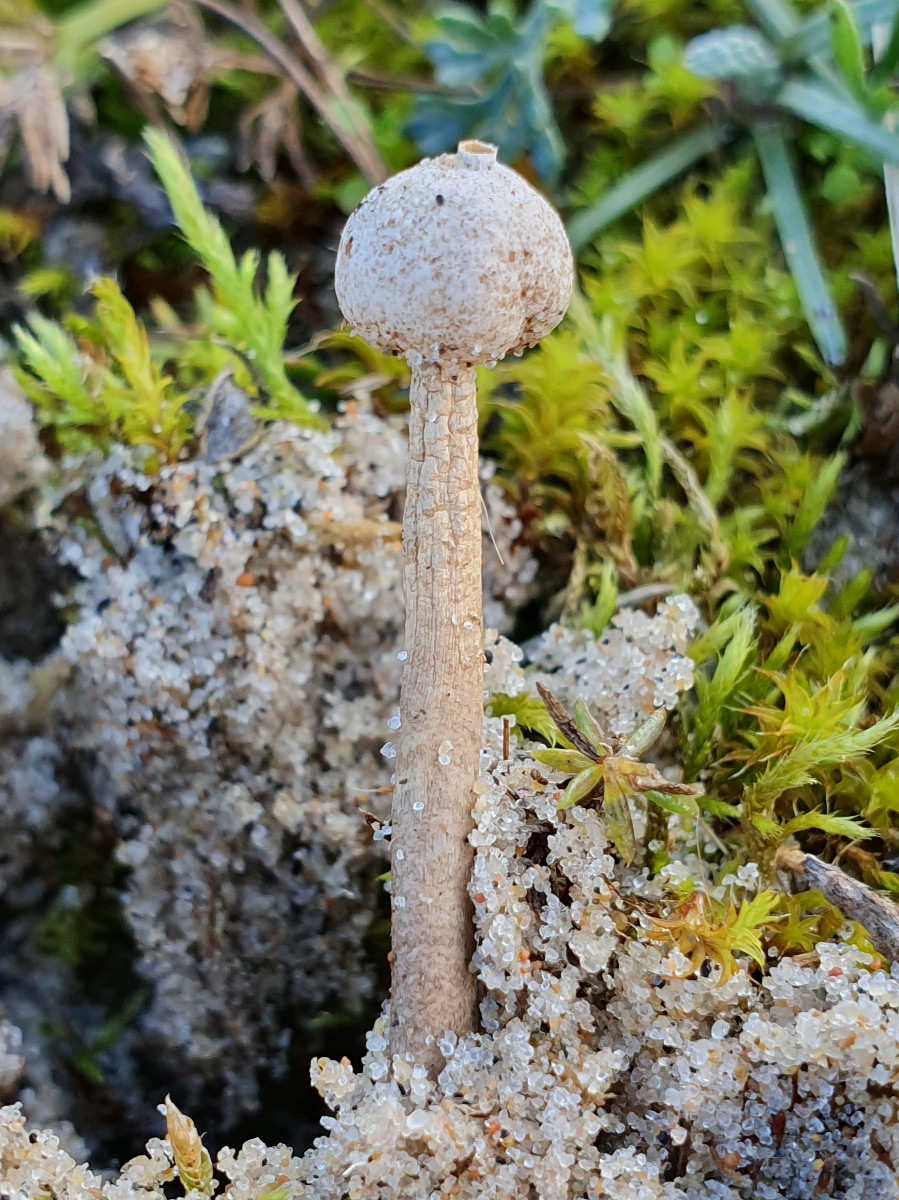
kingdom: Fungi
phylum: Basidiomycota
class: Agaricomycetes
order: Agaricales
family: Agaricaceae
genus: Tulostoma
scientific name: Tulostoma brumale
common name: vinter-stilkbovist
